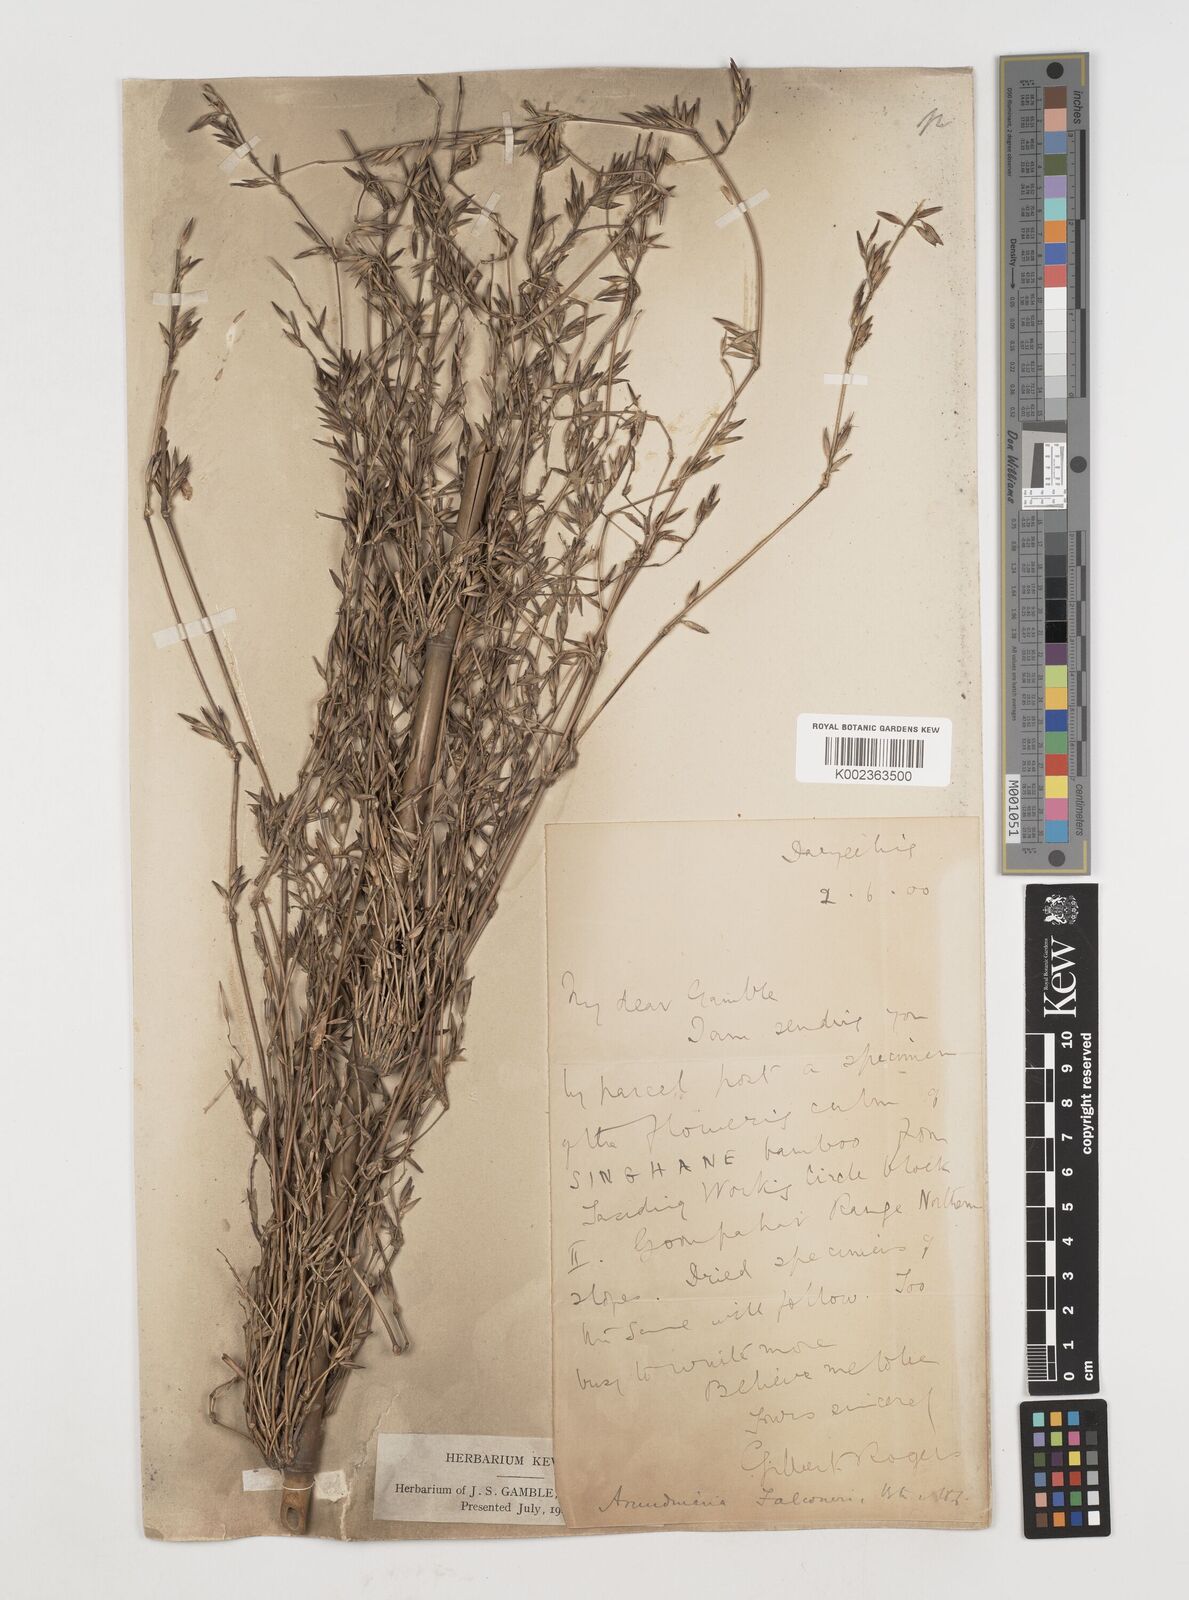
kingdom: Plantae
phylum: Tracheophyta
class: Liliopsida
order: Poales
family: Poaceae
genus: Himalayacalamus
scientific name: Himalayacalamus falconeri
